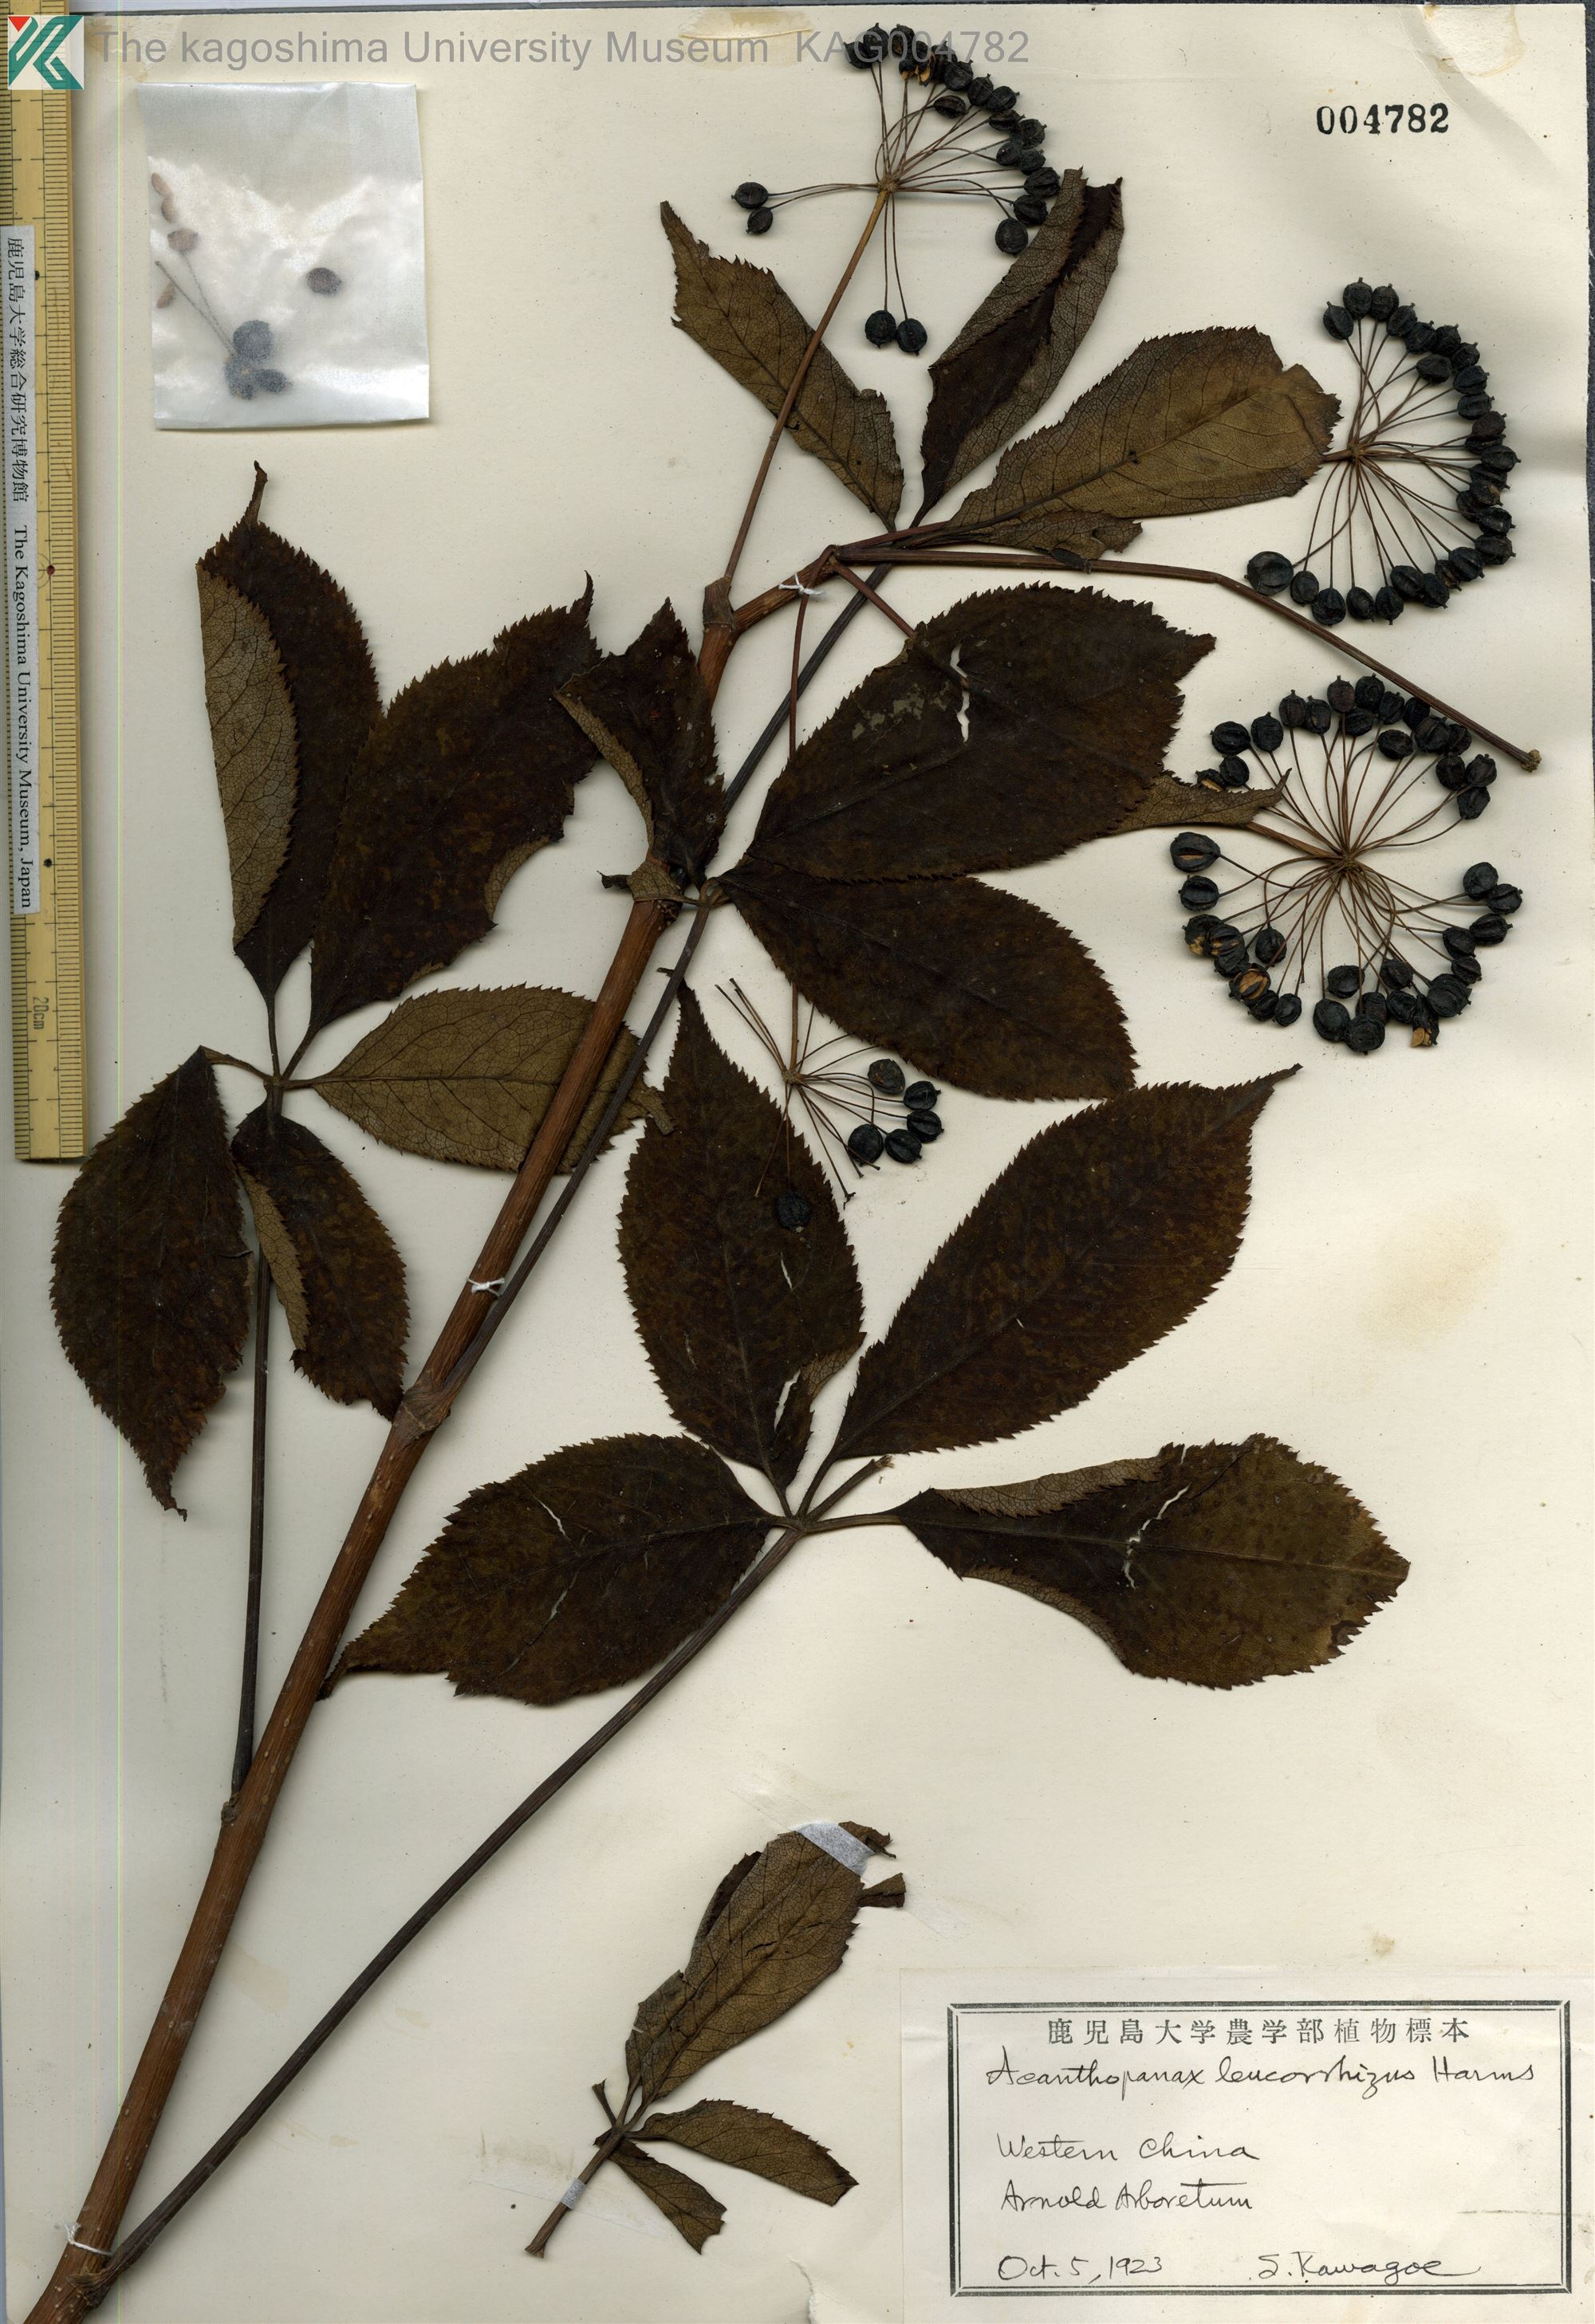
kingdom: Plantae
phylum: Tracheophyta
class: Magnoliopsida
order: Apiales
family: Araliaceae
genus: Eleutherococcus
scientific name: Eleutherococcus leucorrhizus
